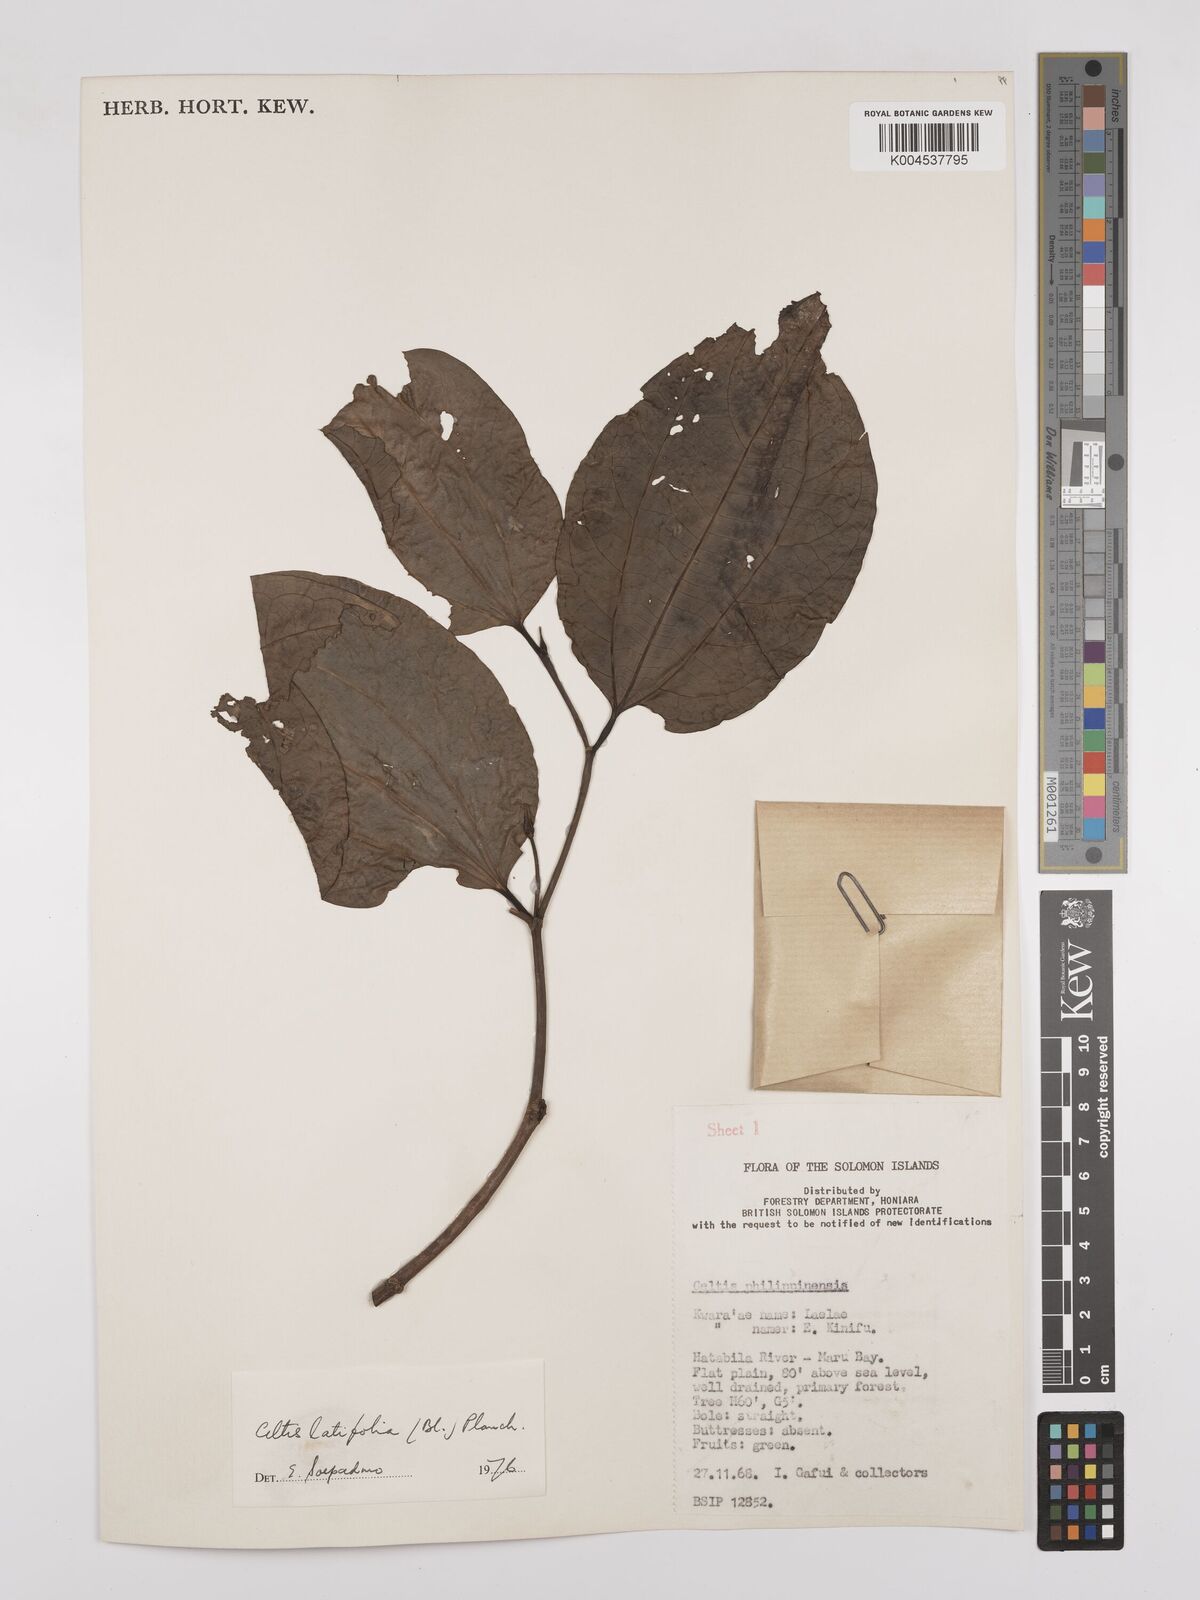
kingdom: Plantae
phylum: Tracheophyta
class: Magnoliopsida
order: Rosales
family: Cannabaceae
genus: Celtis
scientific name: Celtis latifolia
